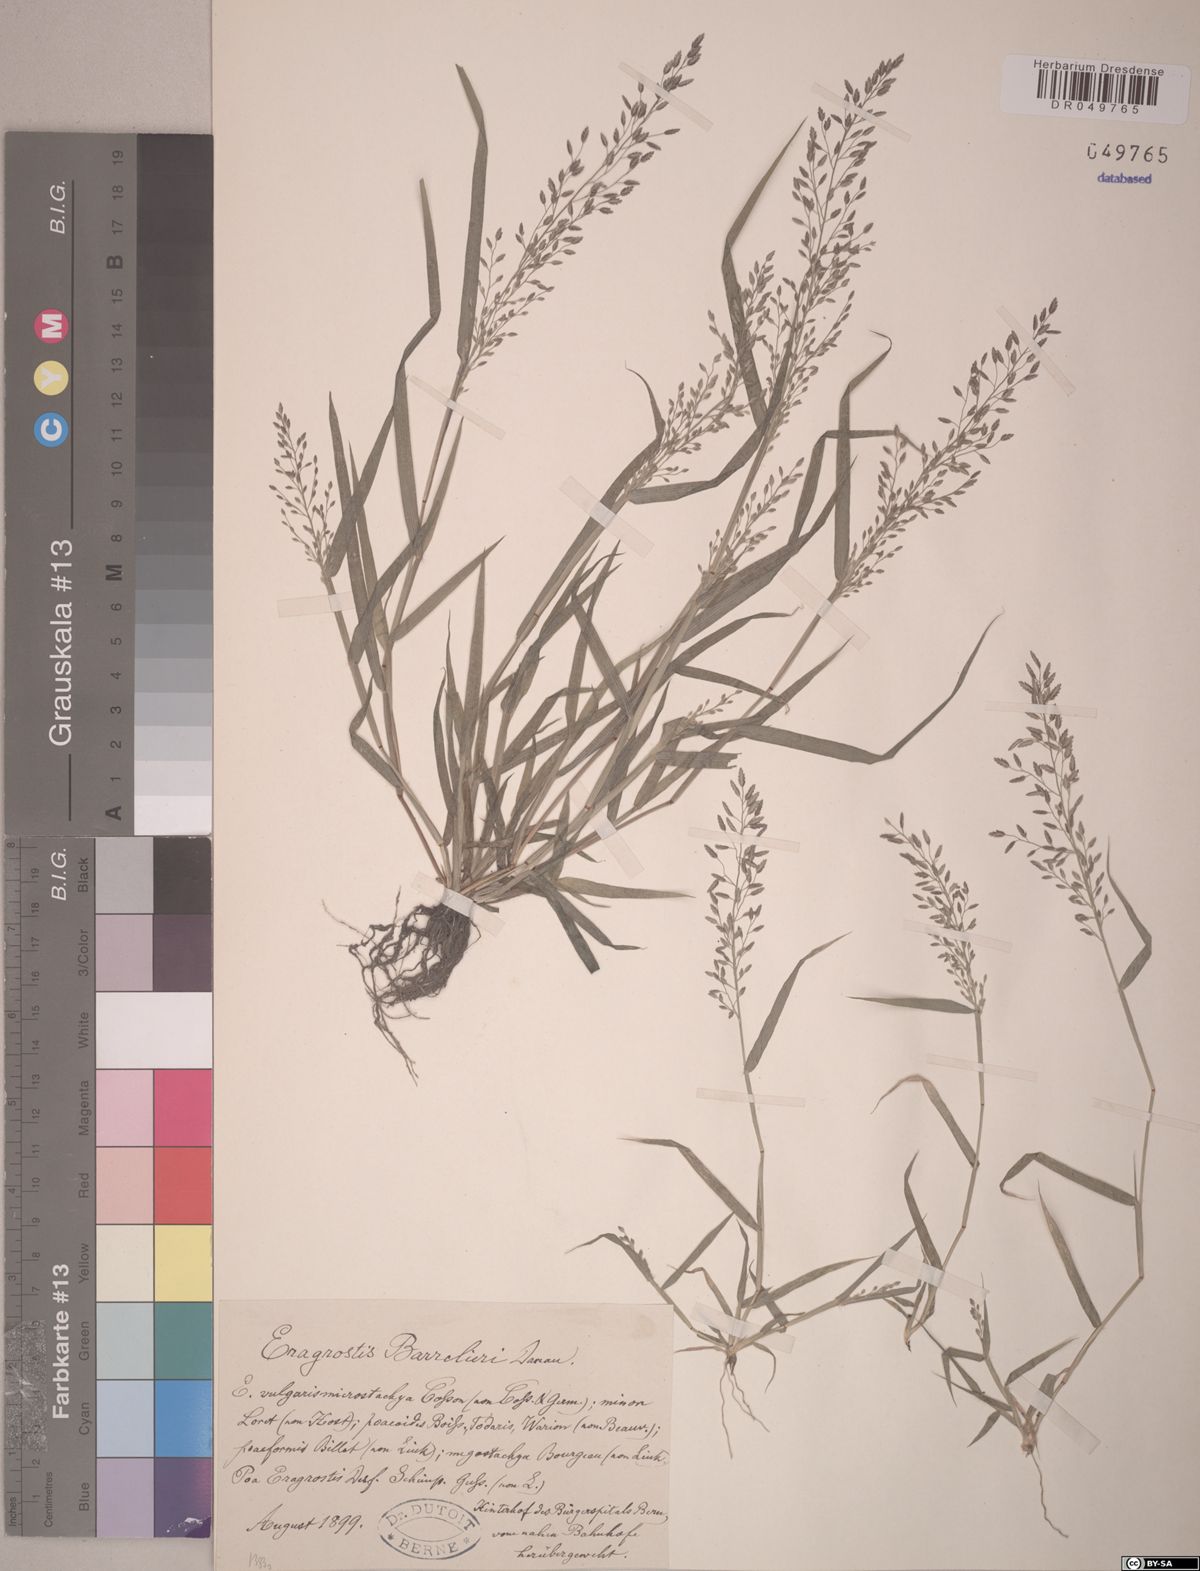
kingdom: Plantae
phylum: Tracheophyta
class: Liliopsida
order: Poales
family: Poaceae
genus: Eragrostis
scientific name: Eragrostis barrelieri
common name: Mediterranean lovegrass
